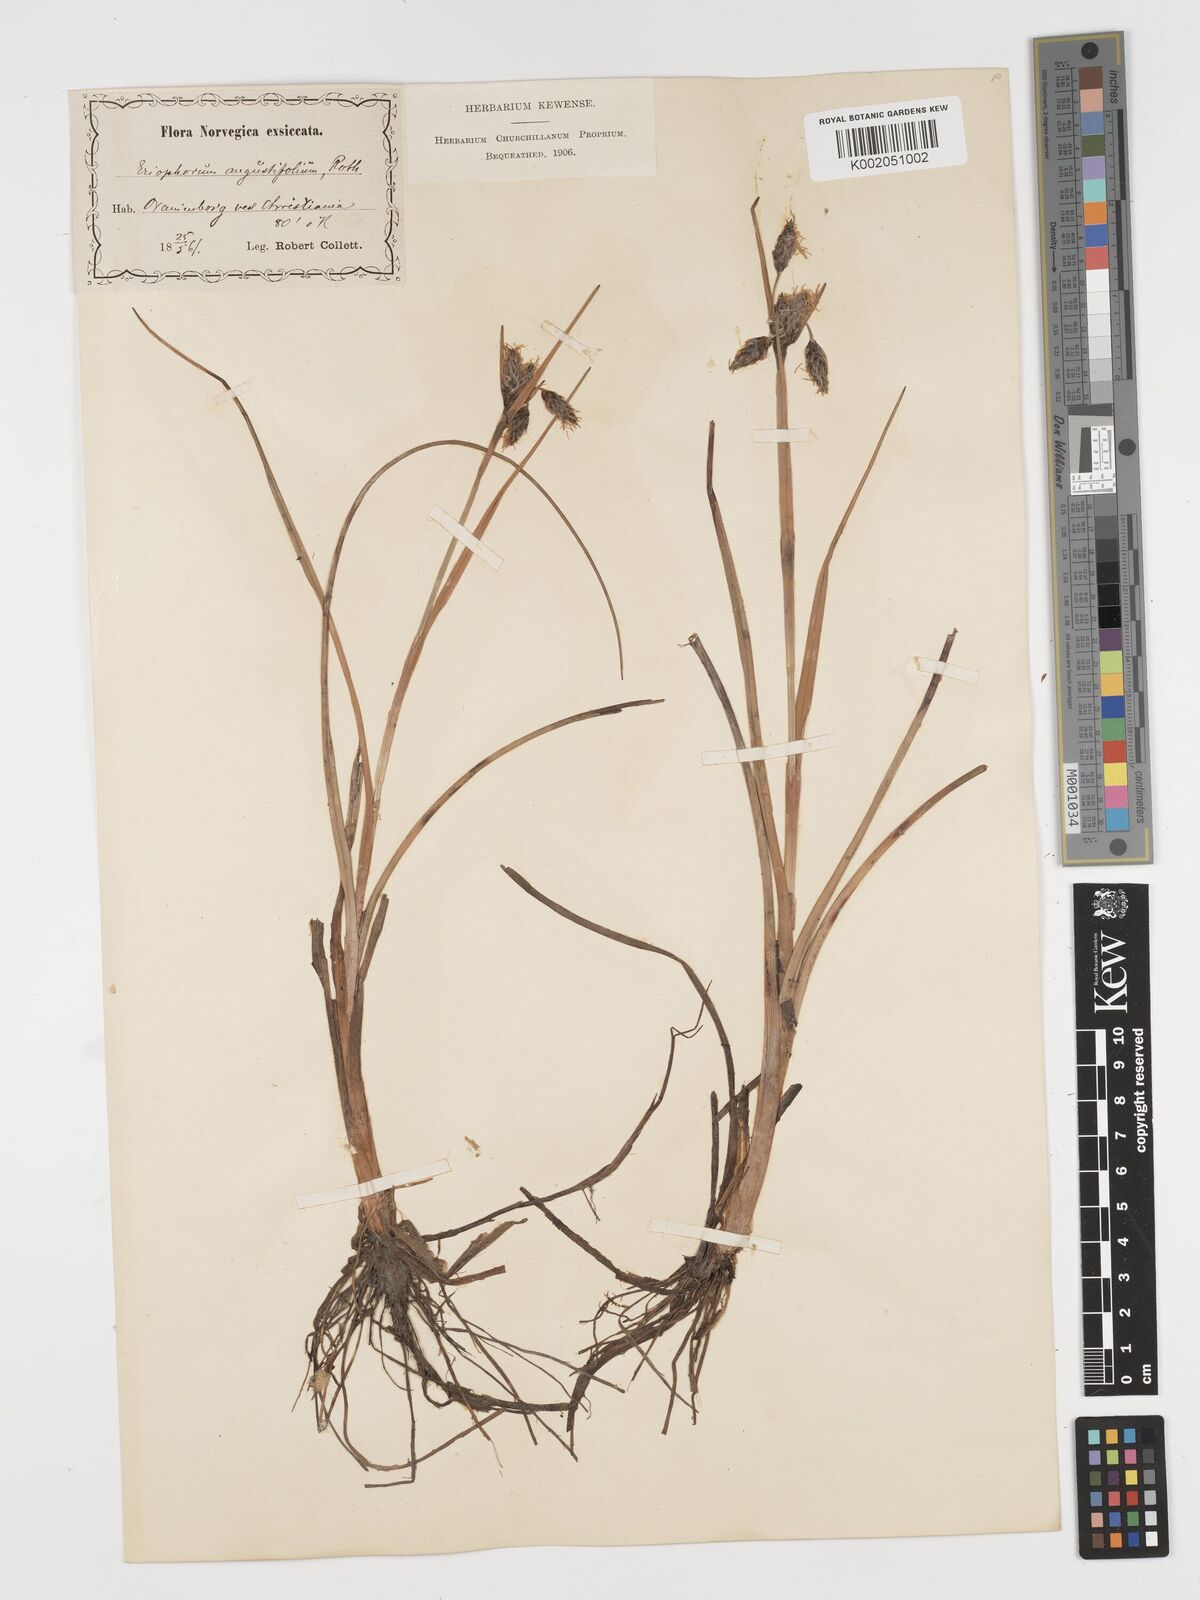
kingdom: Plantae
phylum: Tracheophyta
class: Liliopsida
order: Poales
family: Cyperaceae
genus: Eriophorum
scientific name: Eriophorum angustifolium
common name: Common cottongrass
